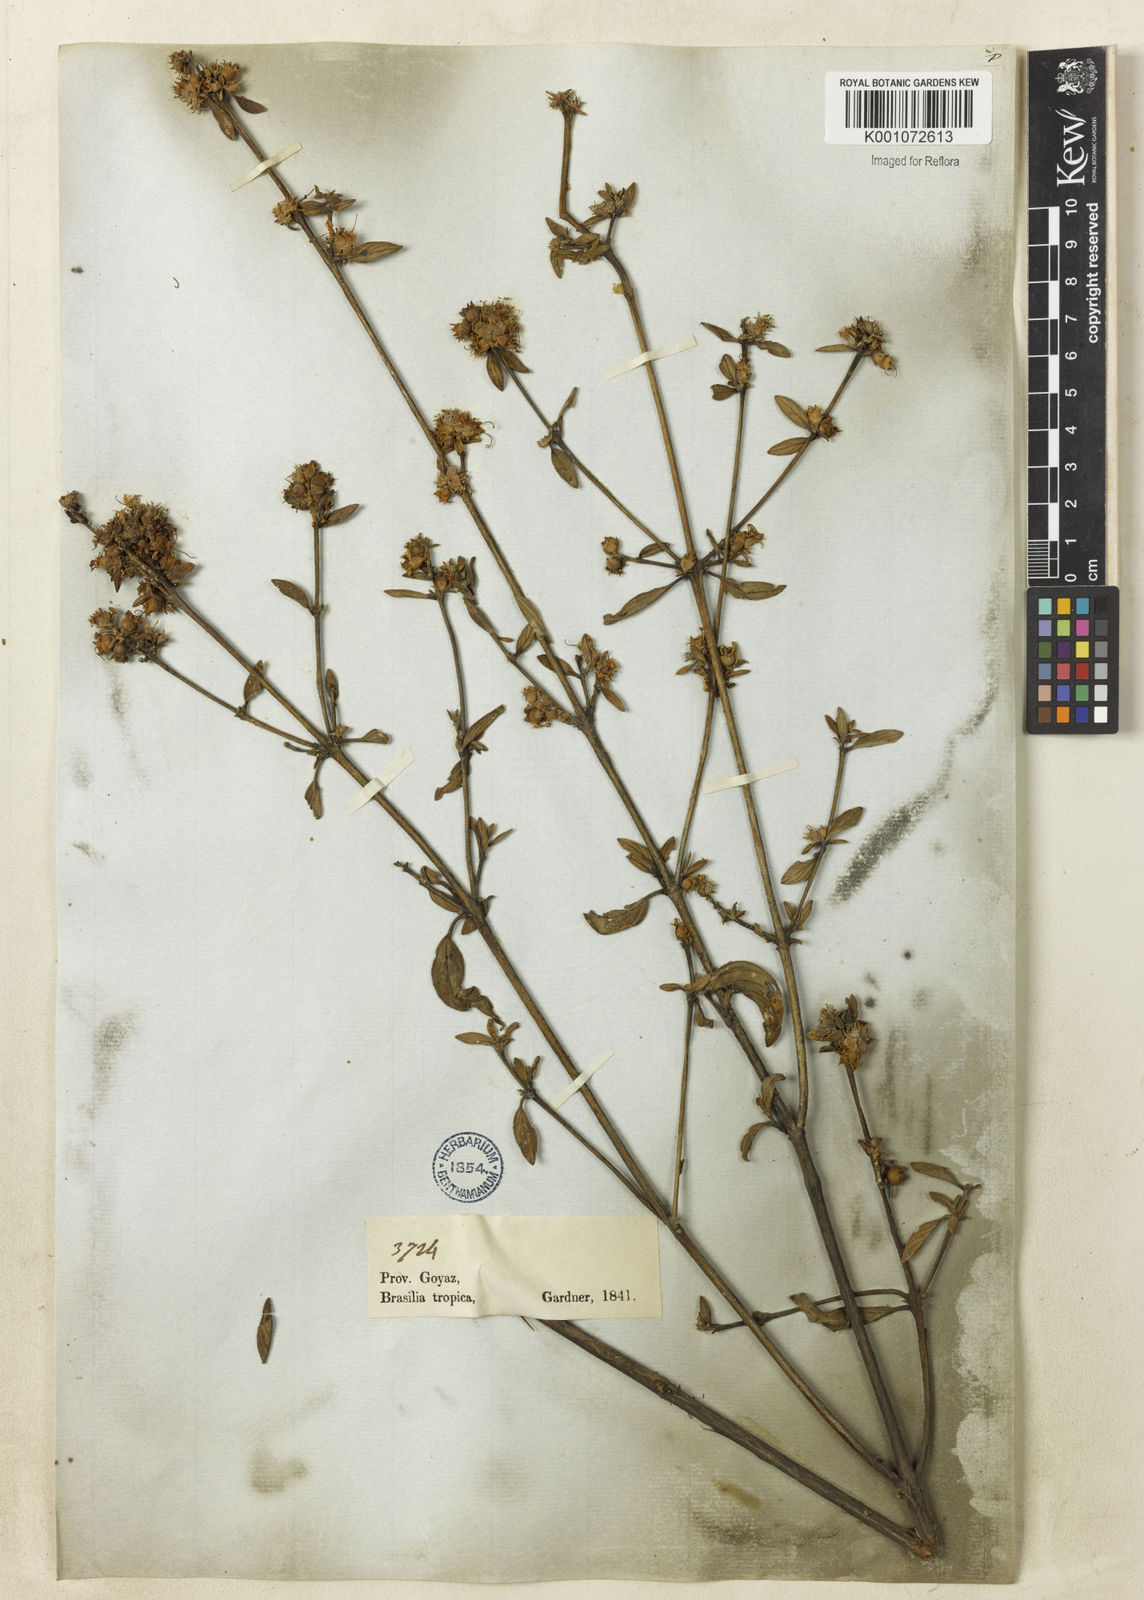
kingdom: Plantae
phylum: Tracheophyta
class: Magnoliopsida
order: Myrtales
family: Lythraceae
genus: Diplusodon
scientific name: Diplusodon lanceolatus
